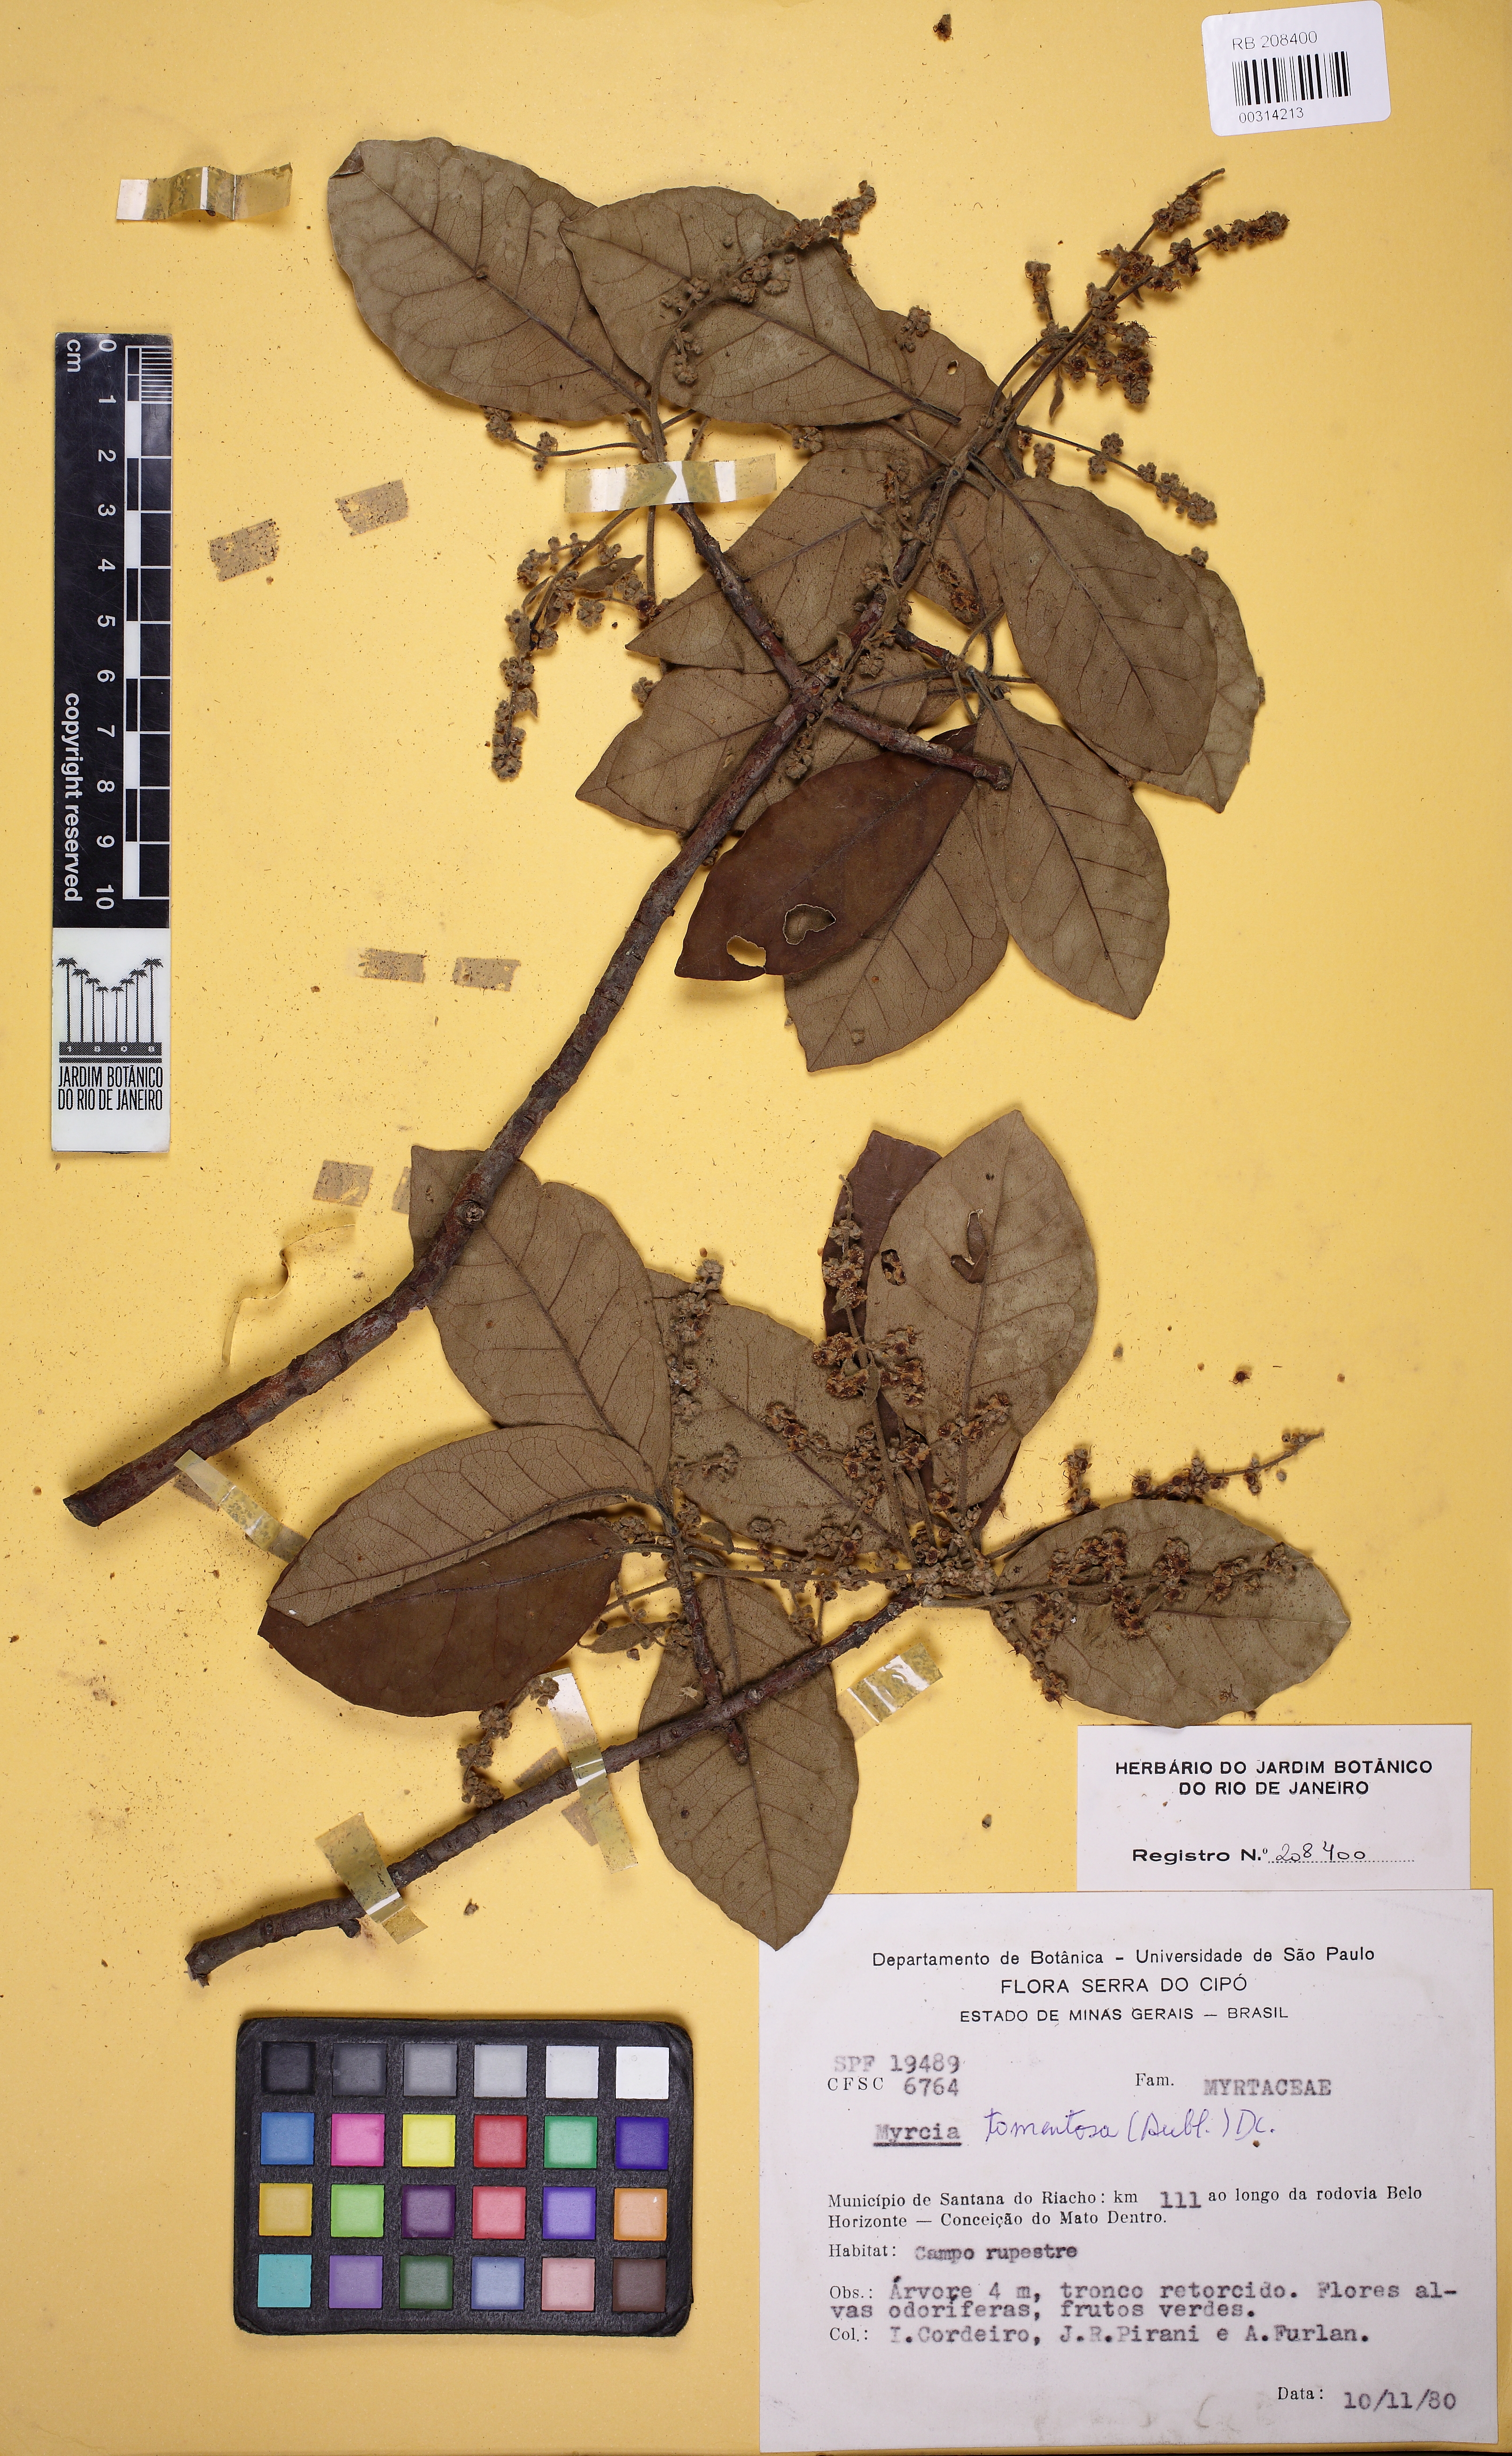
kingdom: Plantae
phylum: Tracheophyta
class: Magnoliopsida
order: Myrtales
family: Myrtaceae
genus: Myrcia
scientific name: Myrcia tomentosa
